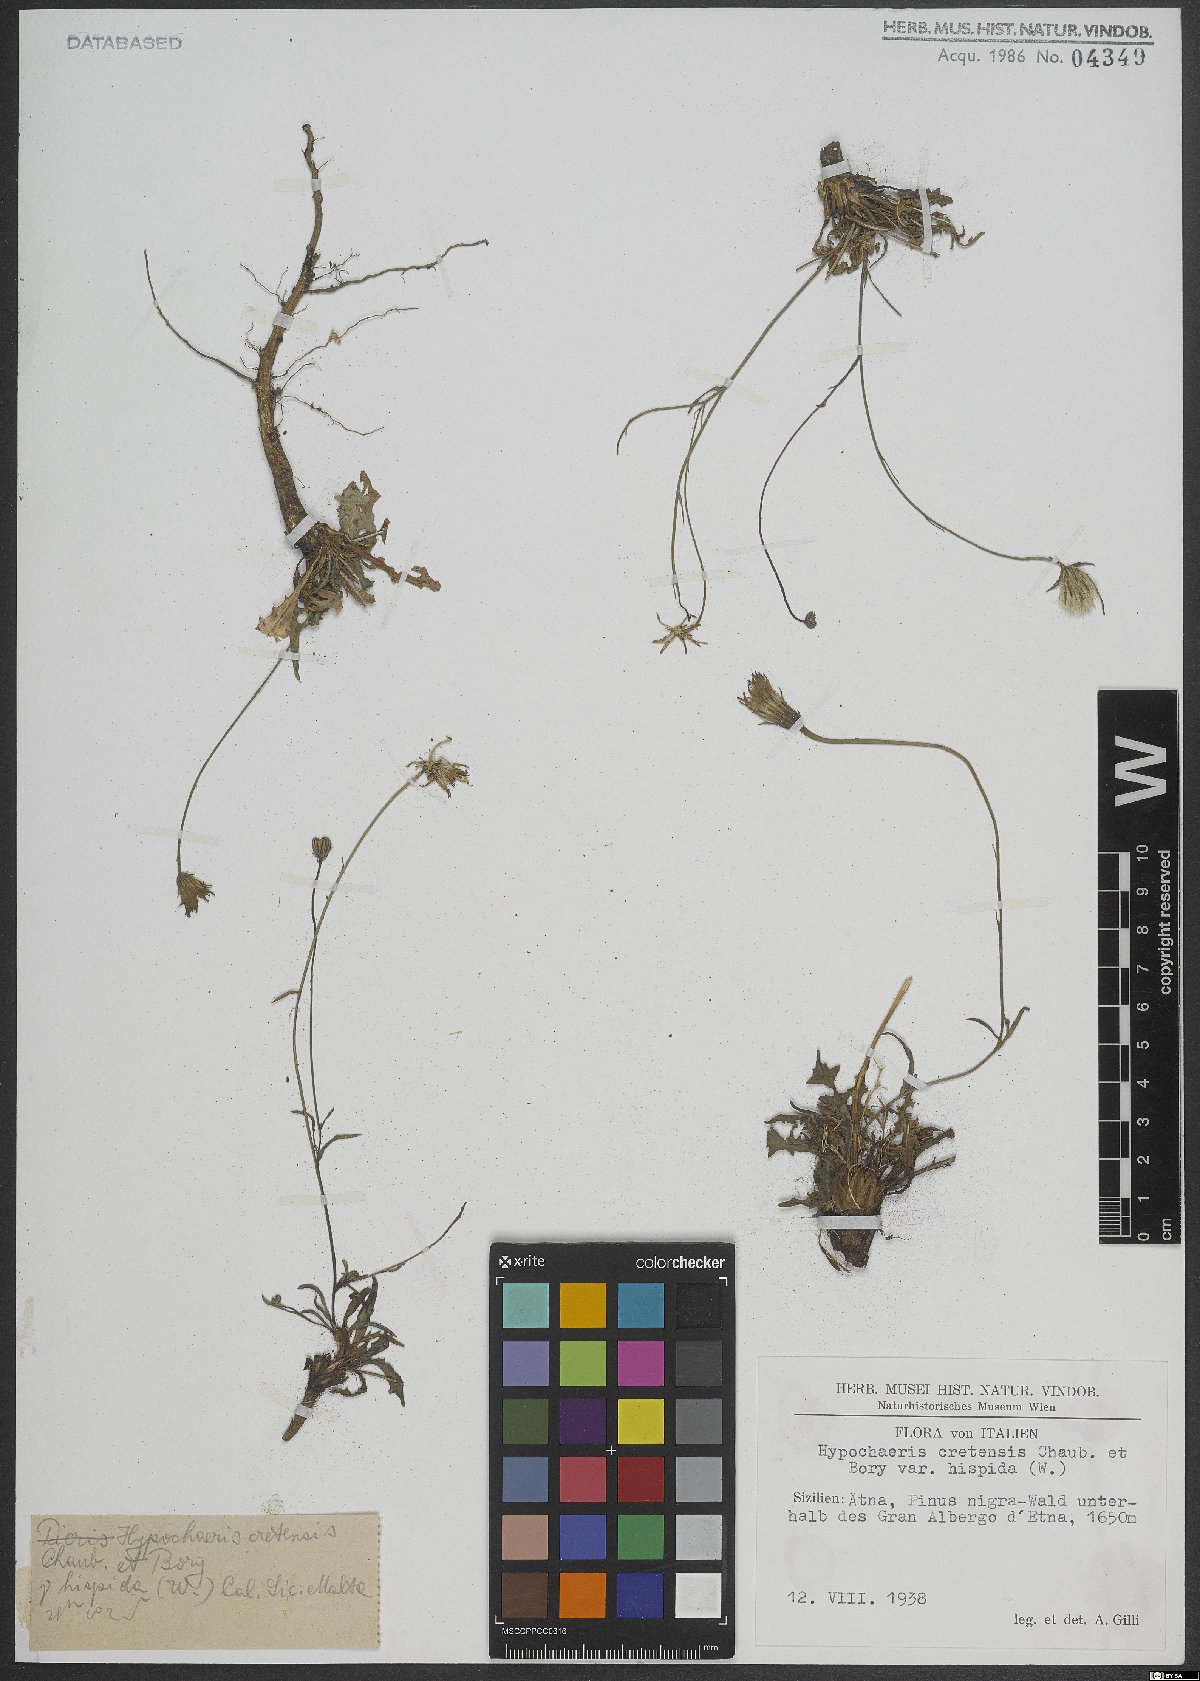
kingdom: Plantae
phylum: Tracheophyta
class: Magnoliopsida
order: Asterales
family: Asteraceae
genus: Hypochaeris
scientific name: Hypochaeris cretensis
